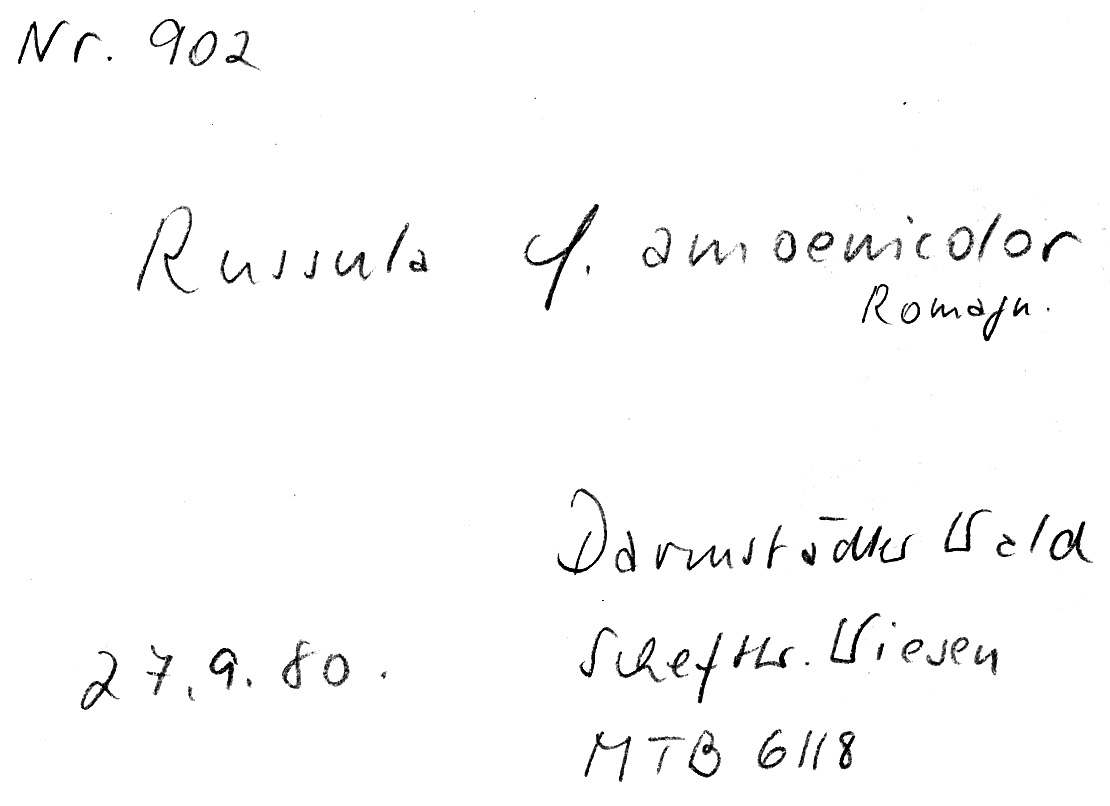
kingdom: Fungi
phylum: Basidiomycota
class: Agaricomycetes
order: Russulales
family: Russulaceae
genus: Russula
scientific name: Russula amoenicolor
